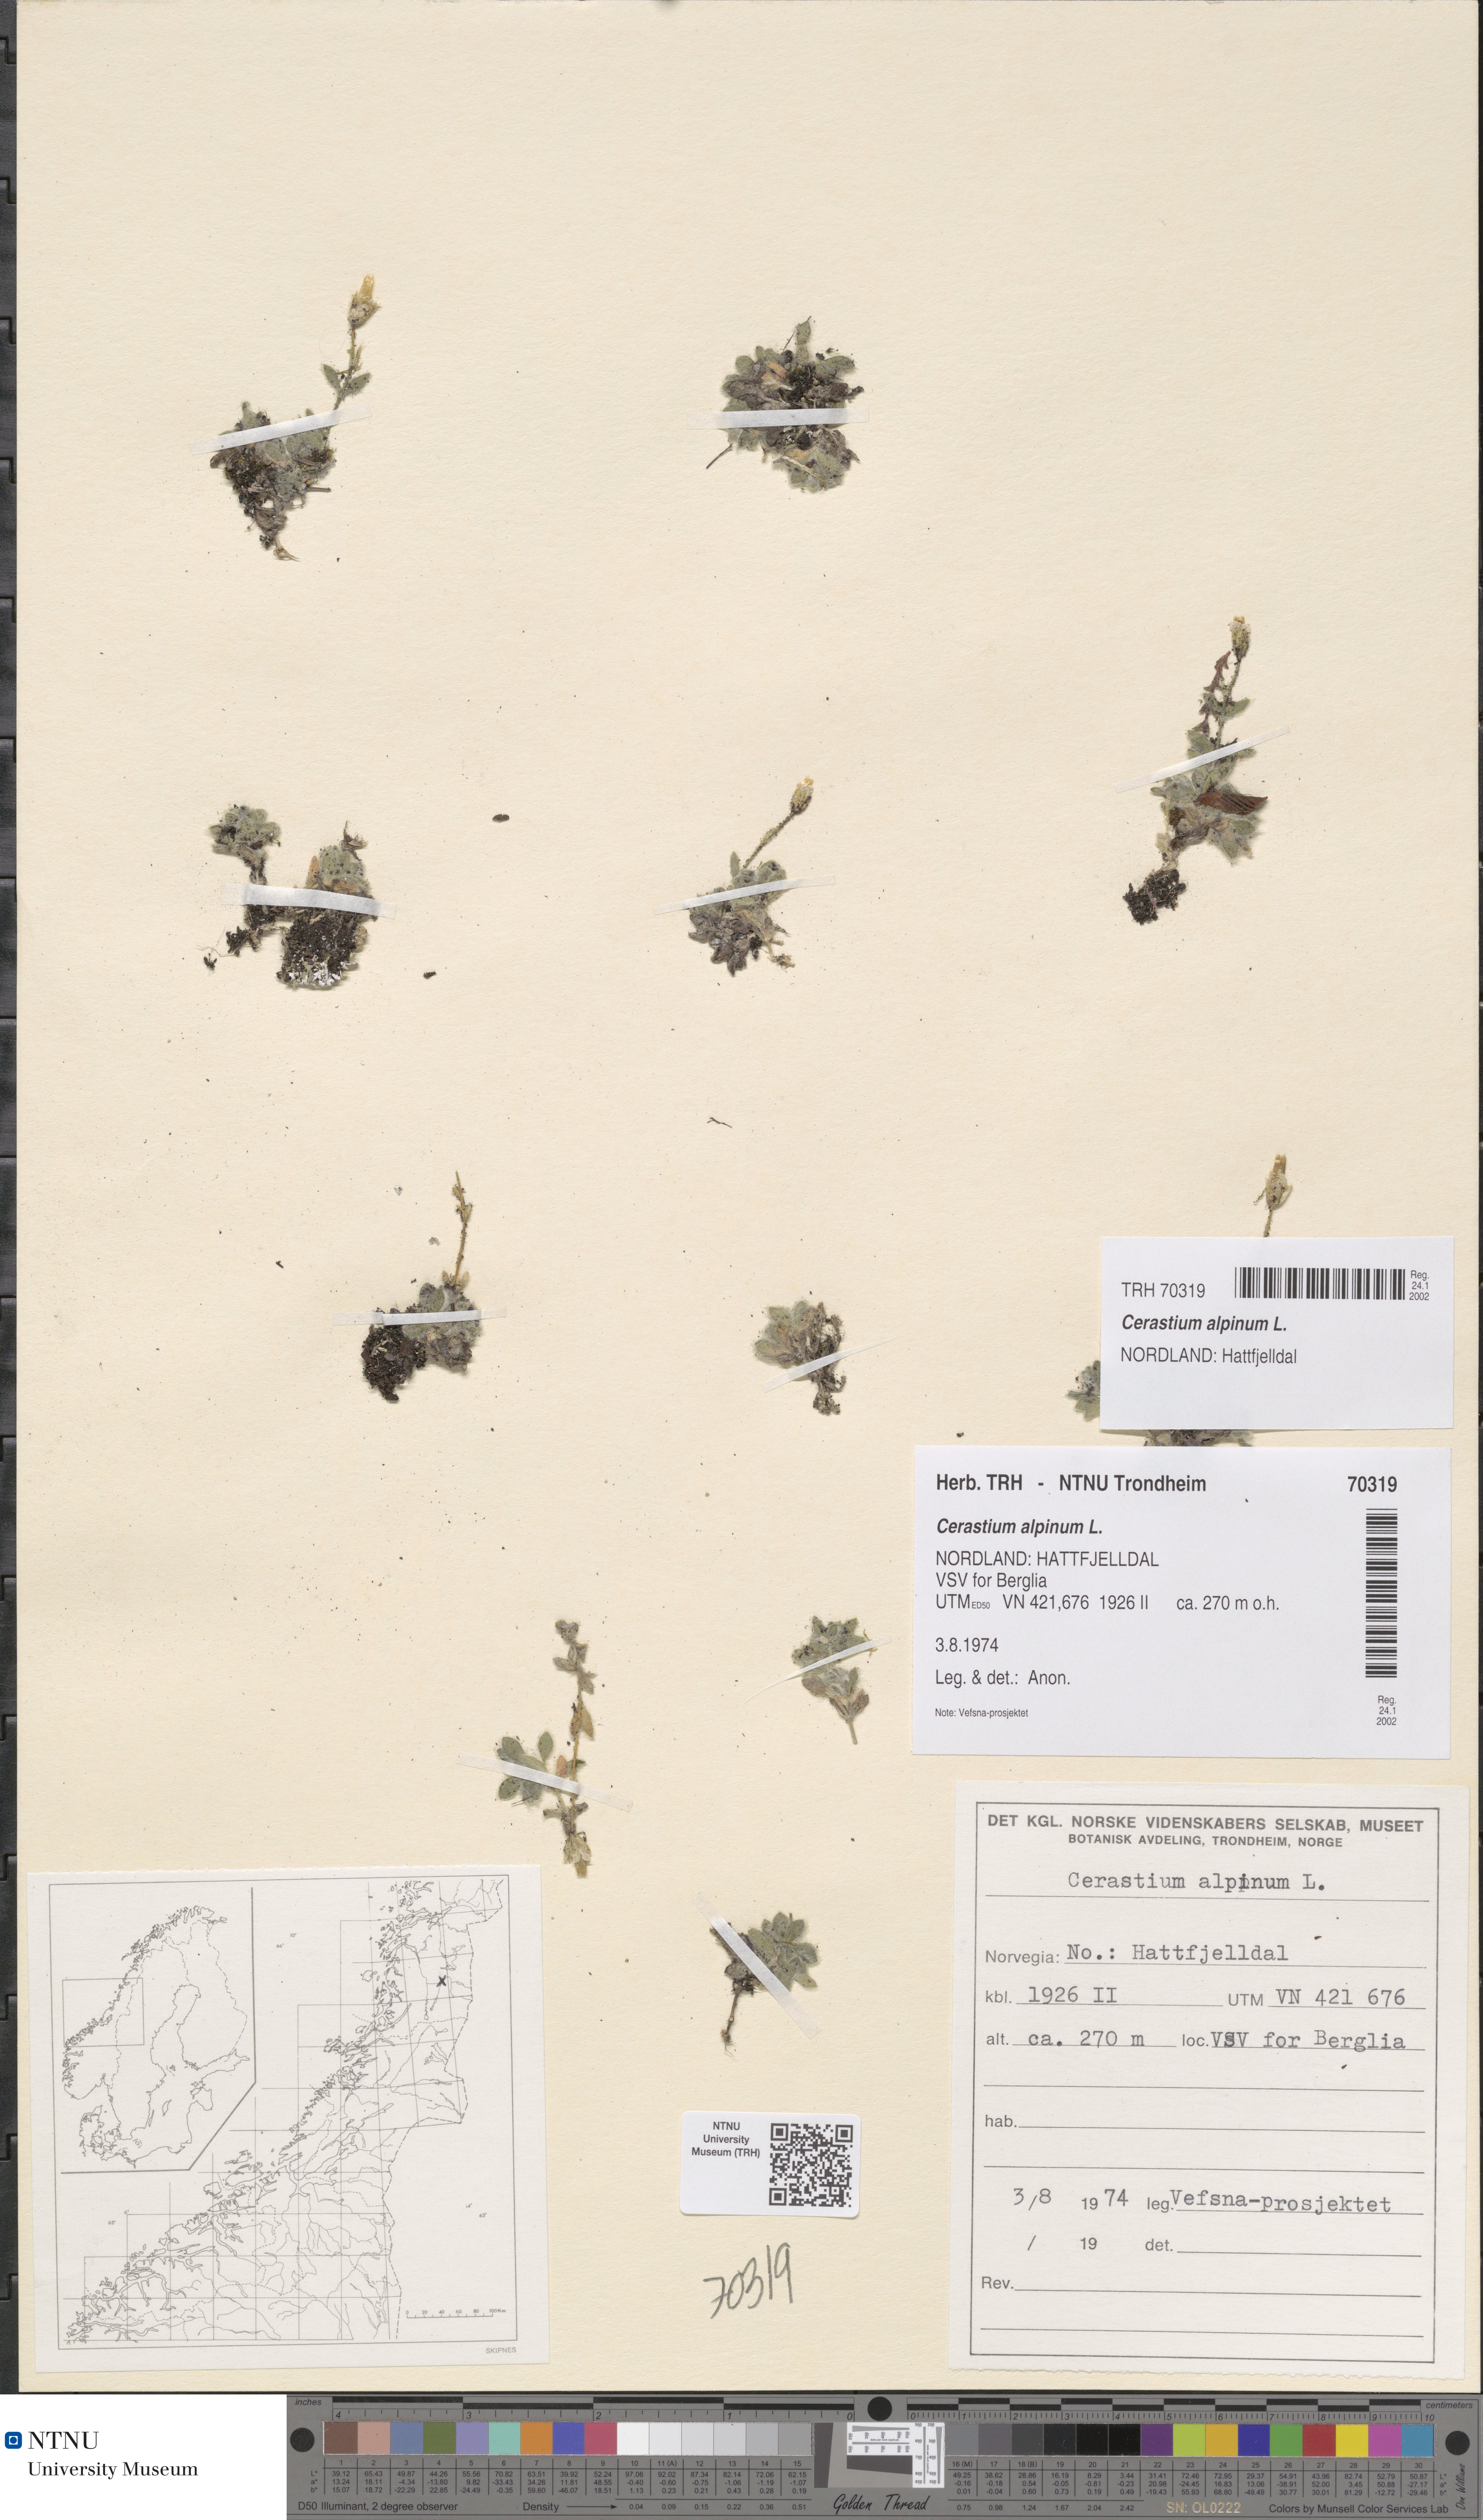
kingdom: Plantae
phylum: Tracheophyta
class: Magnoliopsida
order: Caryophyllales
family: Caryophyllaceae
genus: Cerastium
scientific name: Cerastium alpinum
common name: Alpine mouse-ear
